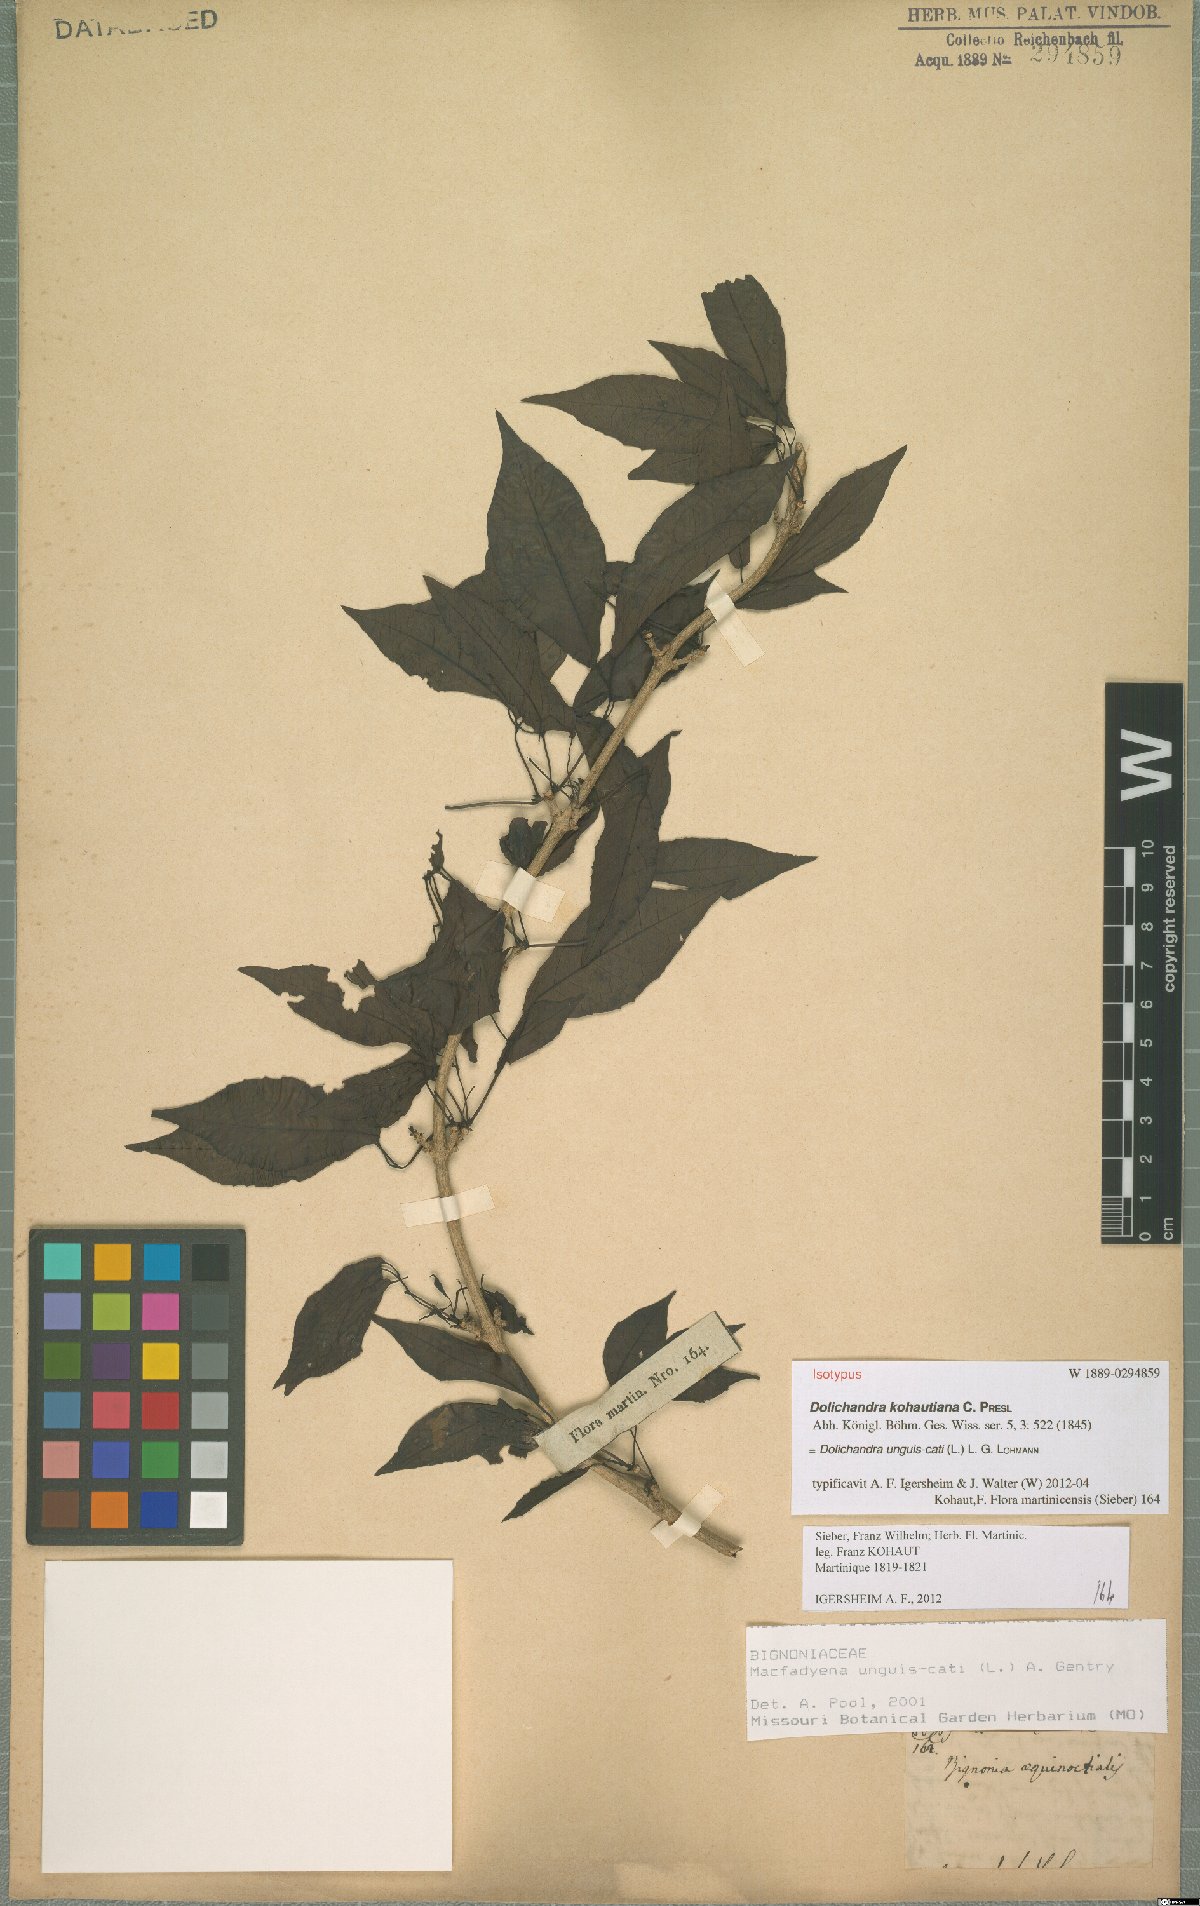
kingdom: Plantae
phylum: Tracheophyta
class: Magnoliopsida
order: Lamiales
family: Bignoniaceae
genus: Dolichandra
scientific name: Dolichandra unguis-cati
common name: Catclaw vine
